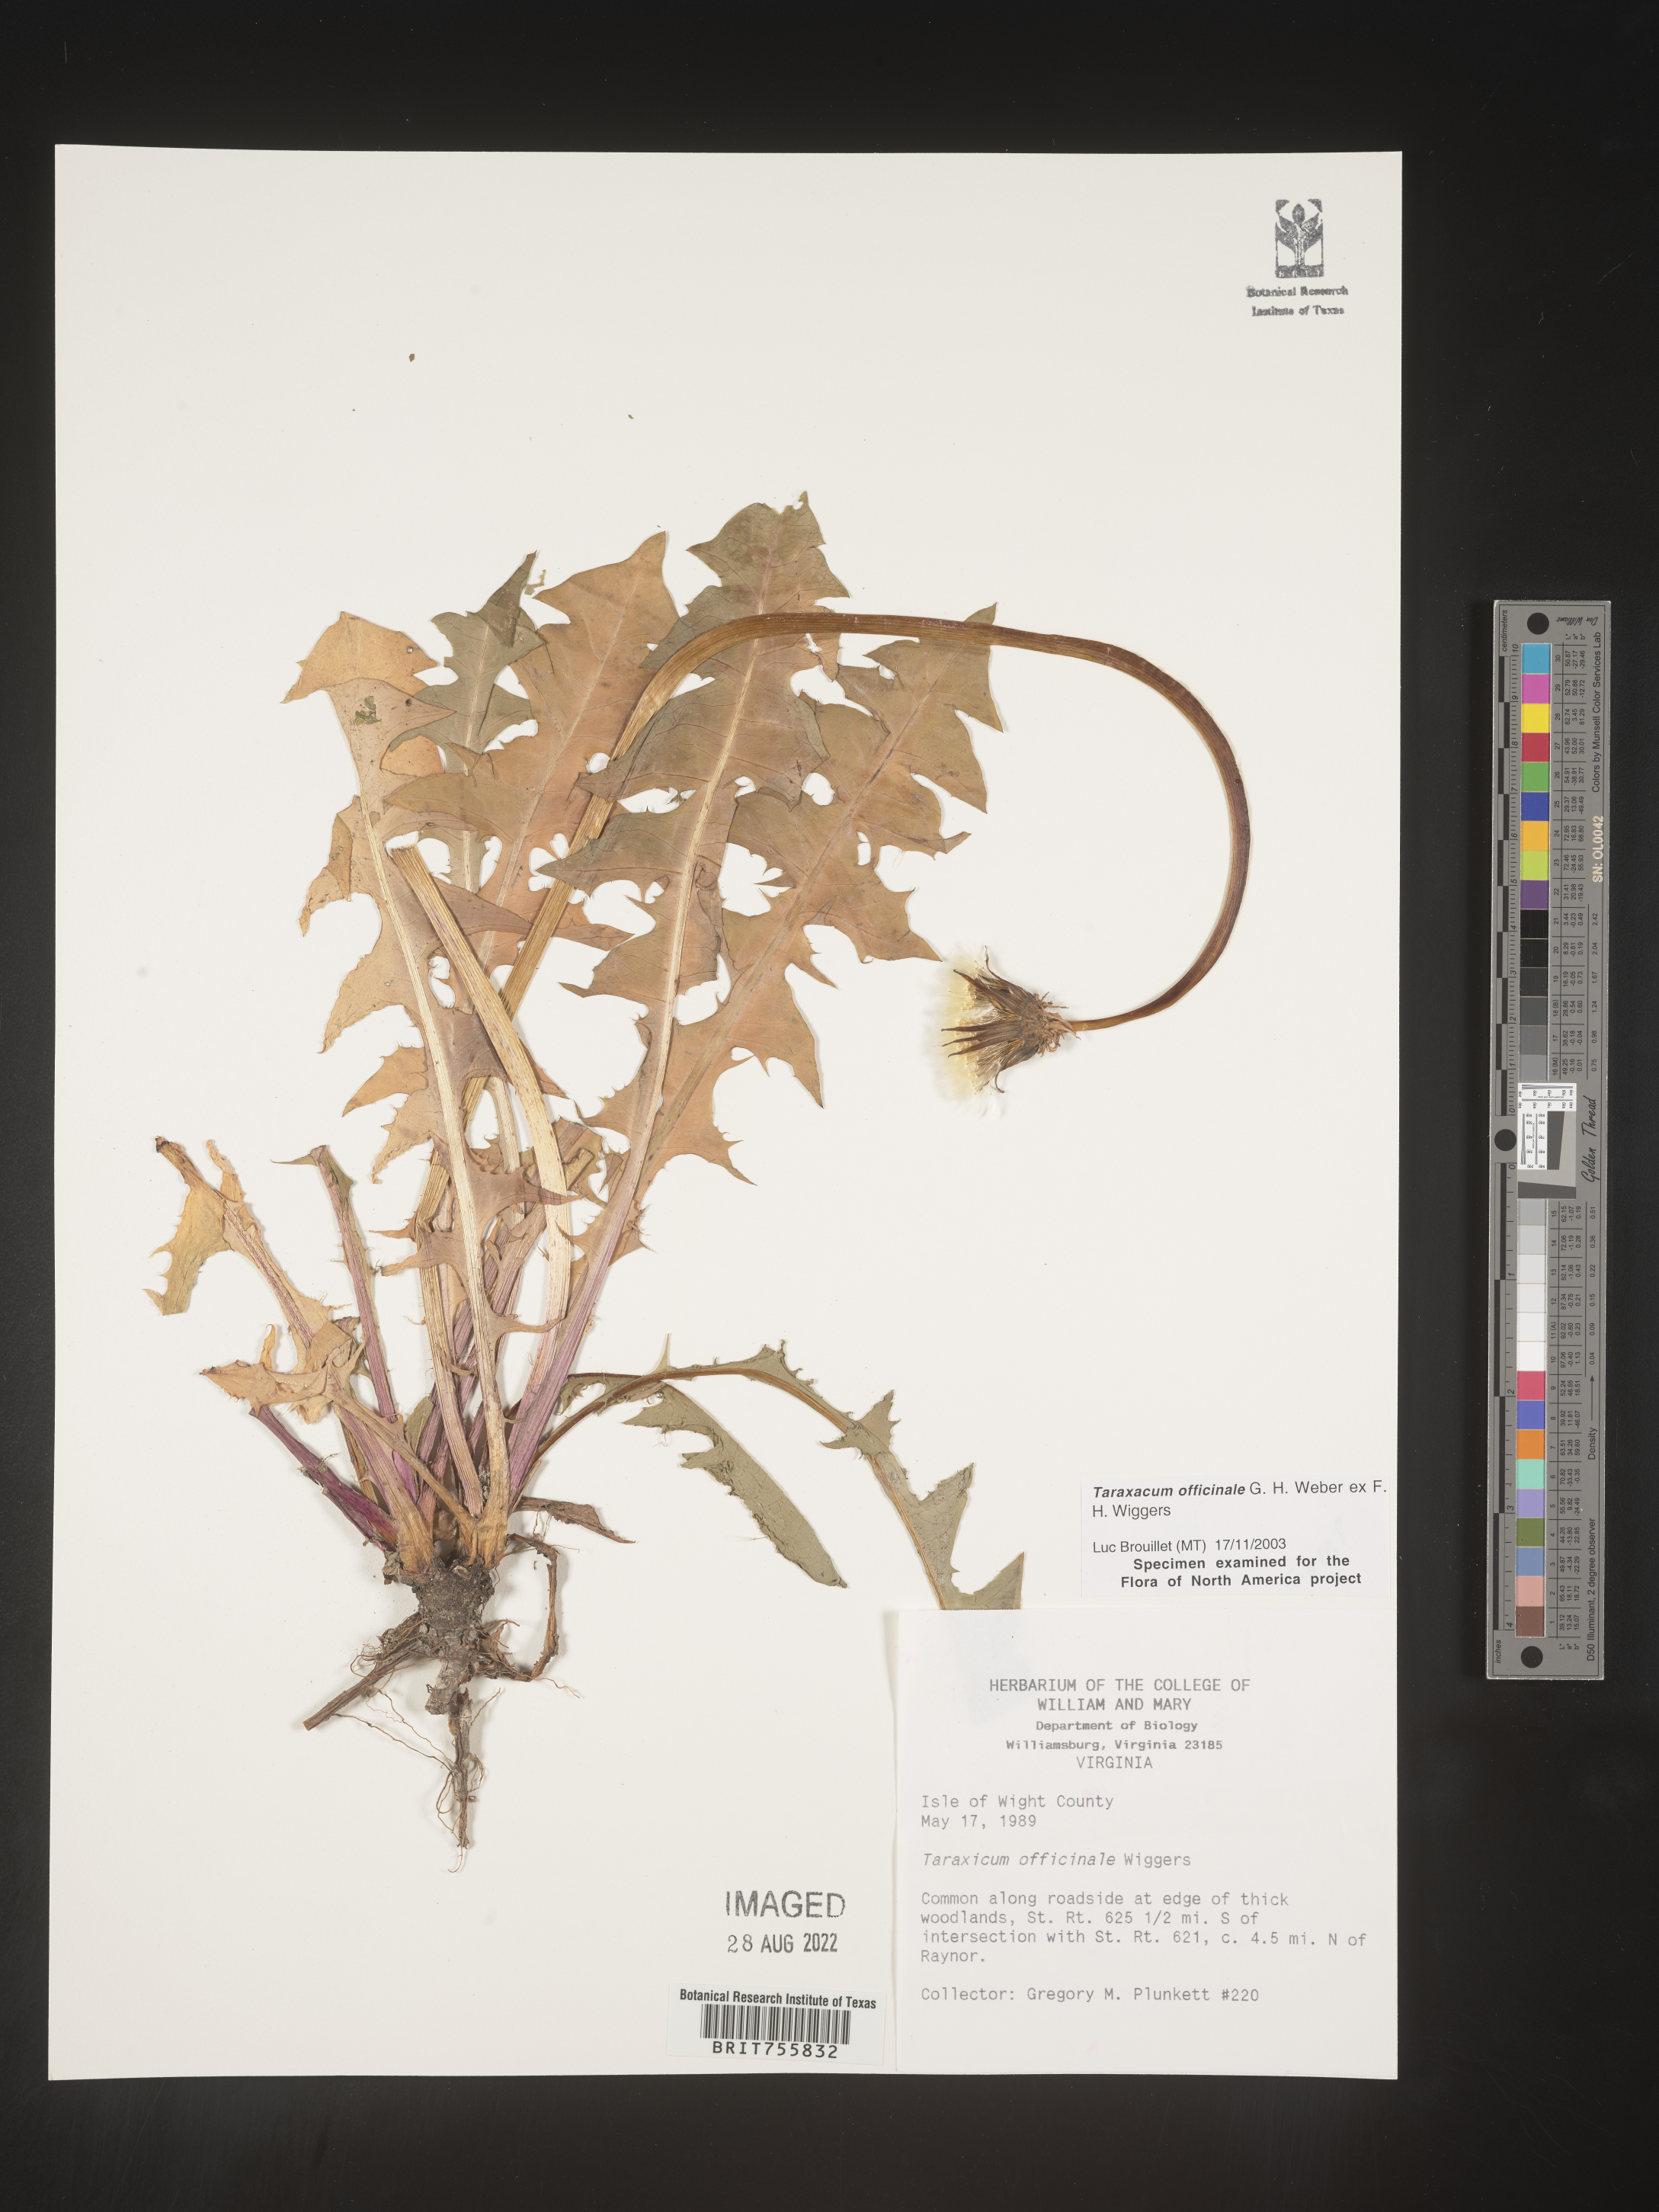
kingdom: Plantae
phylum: Tracheophyta
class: Magnoliopsida
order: Asterales
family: Asteraceae
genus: Taraxacum
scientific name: Taraxacum officinale
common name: Common dandelion
